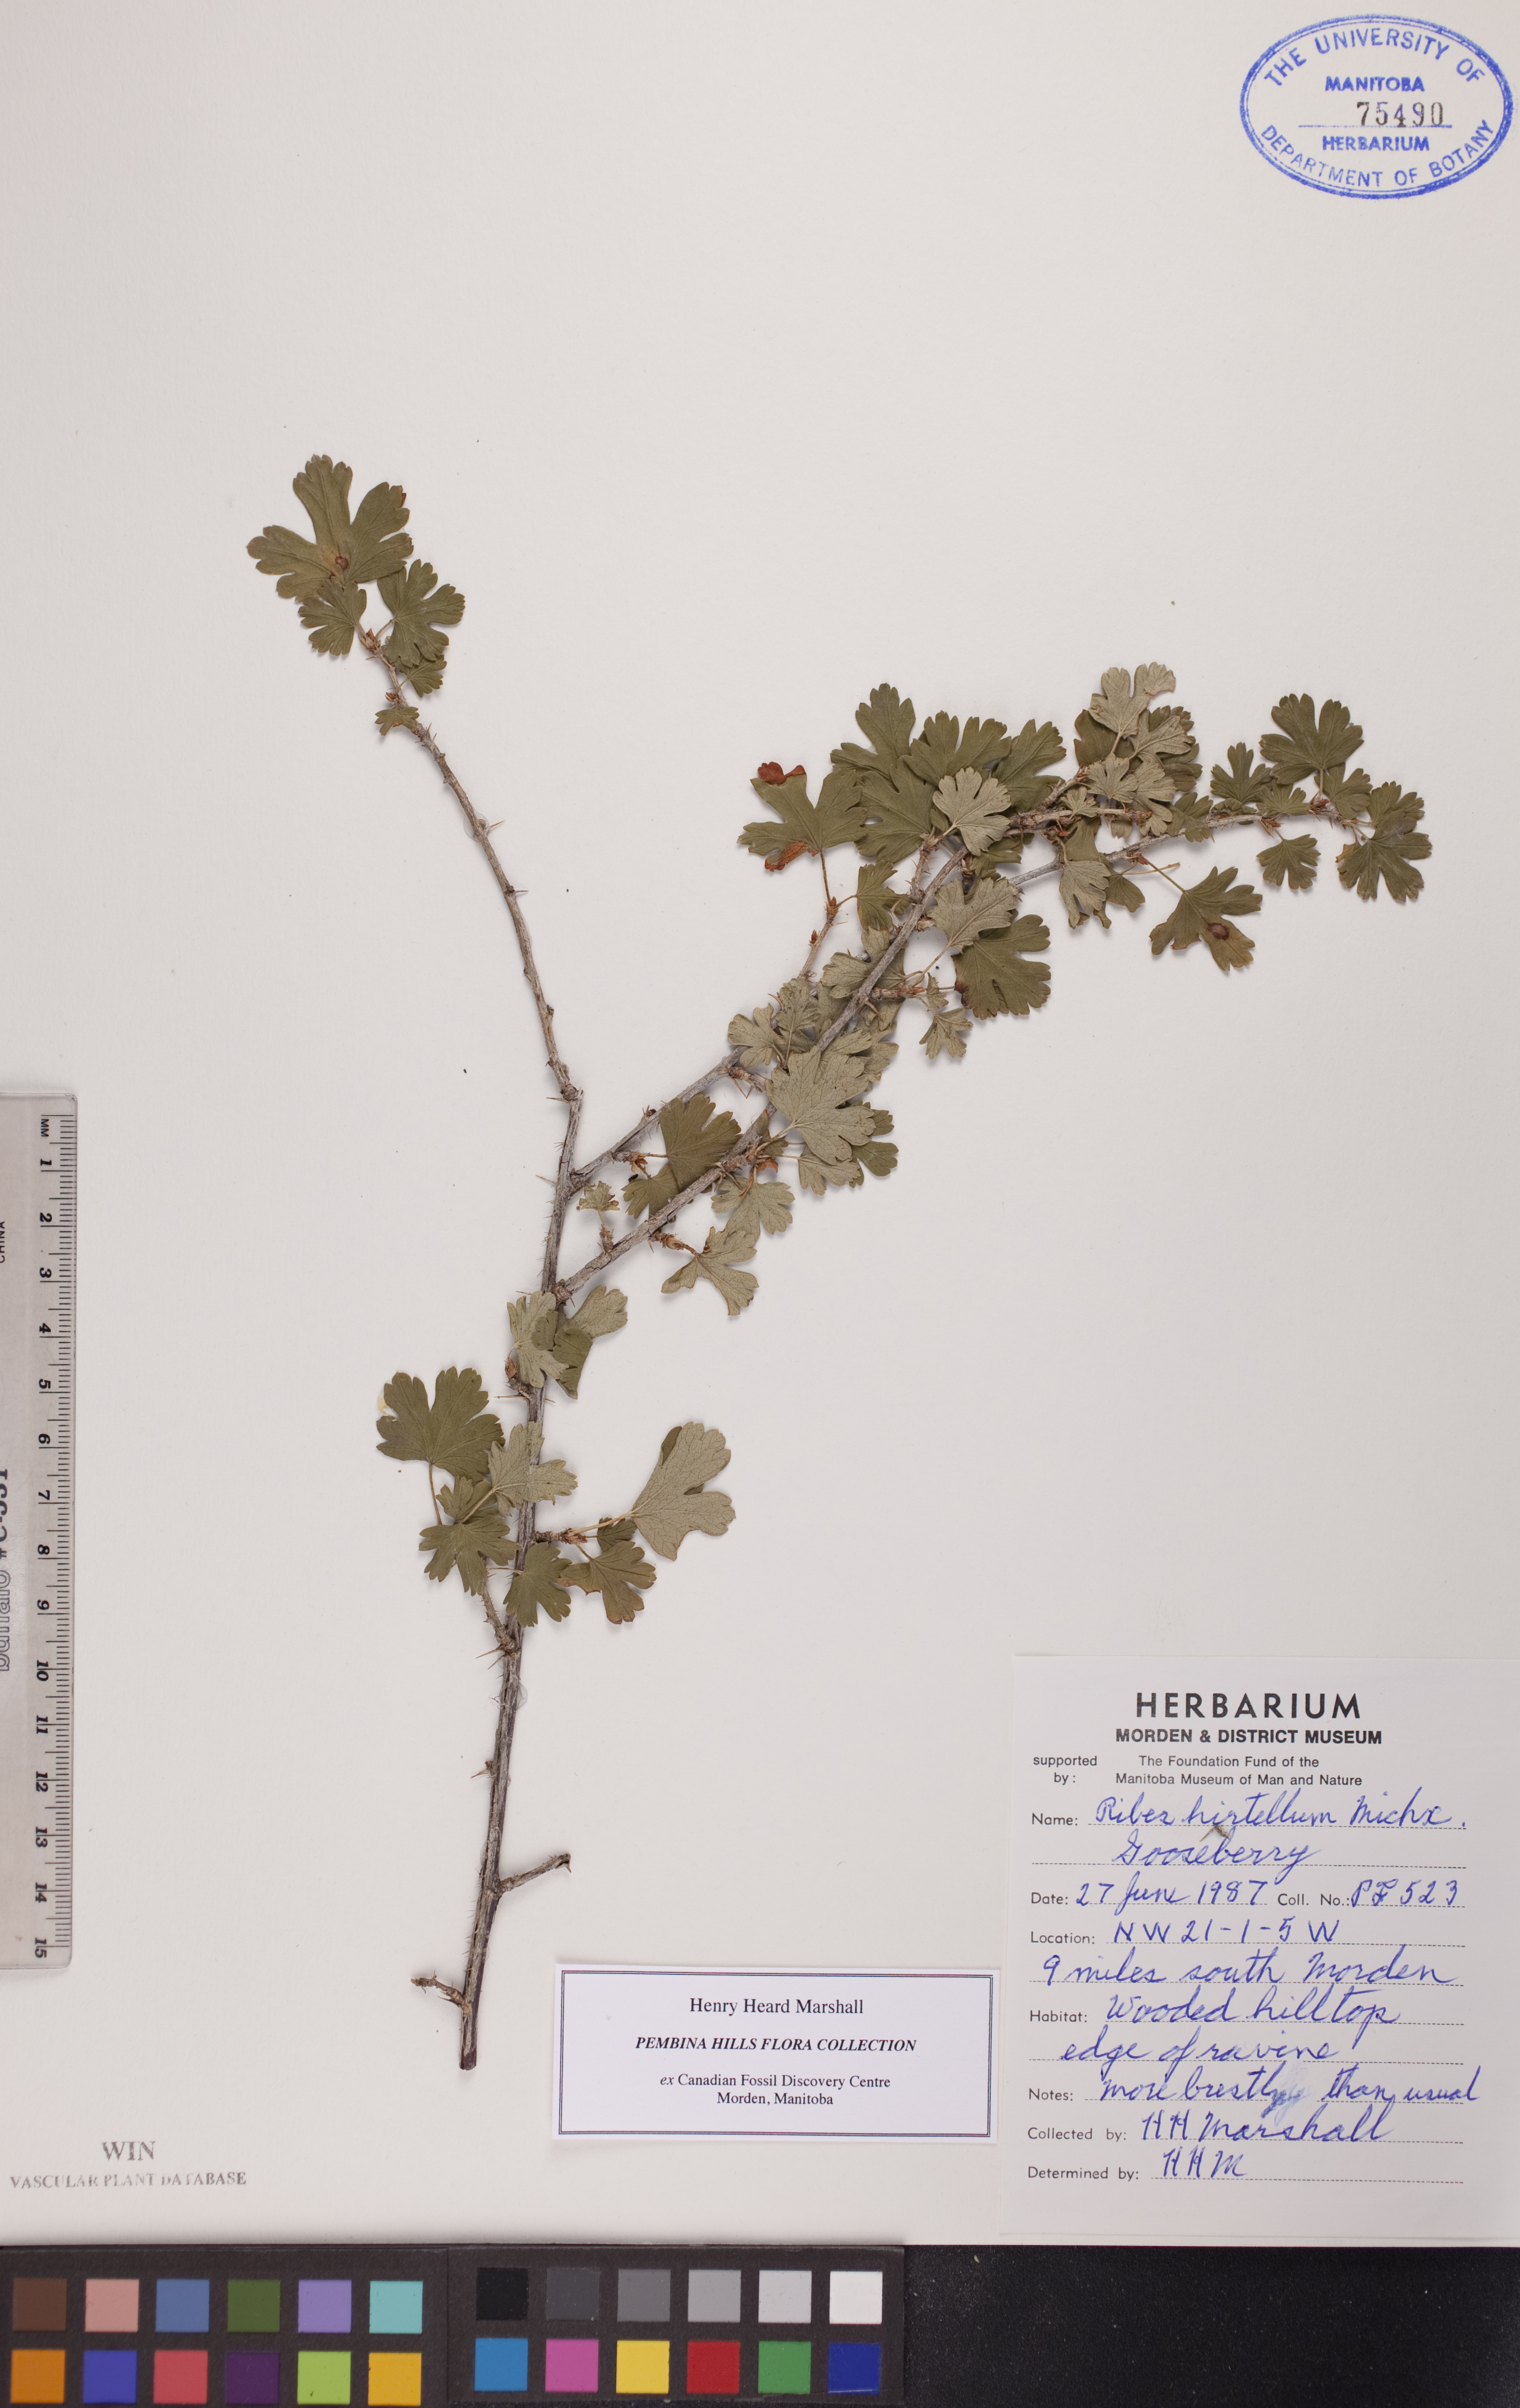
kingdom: Plantae
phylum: Tracheophyta
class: Magnoliopsida
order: Saxifragales
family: Grossulariaceae
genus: Ribes
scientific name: Ribes hirtellum
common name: Hairy gooseberry
